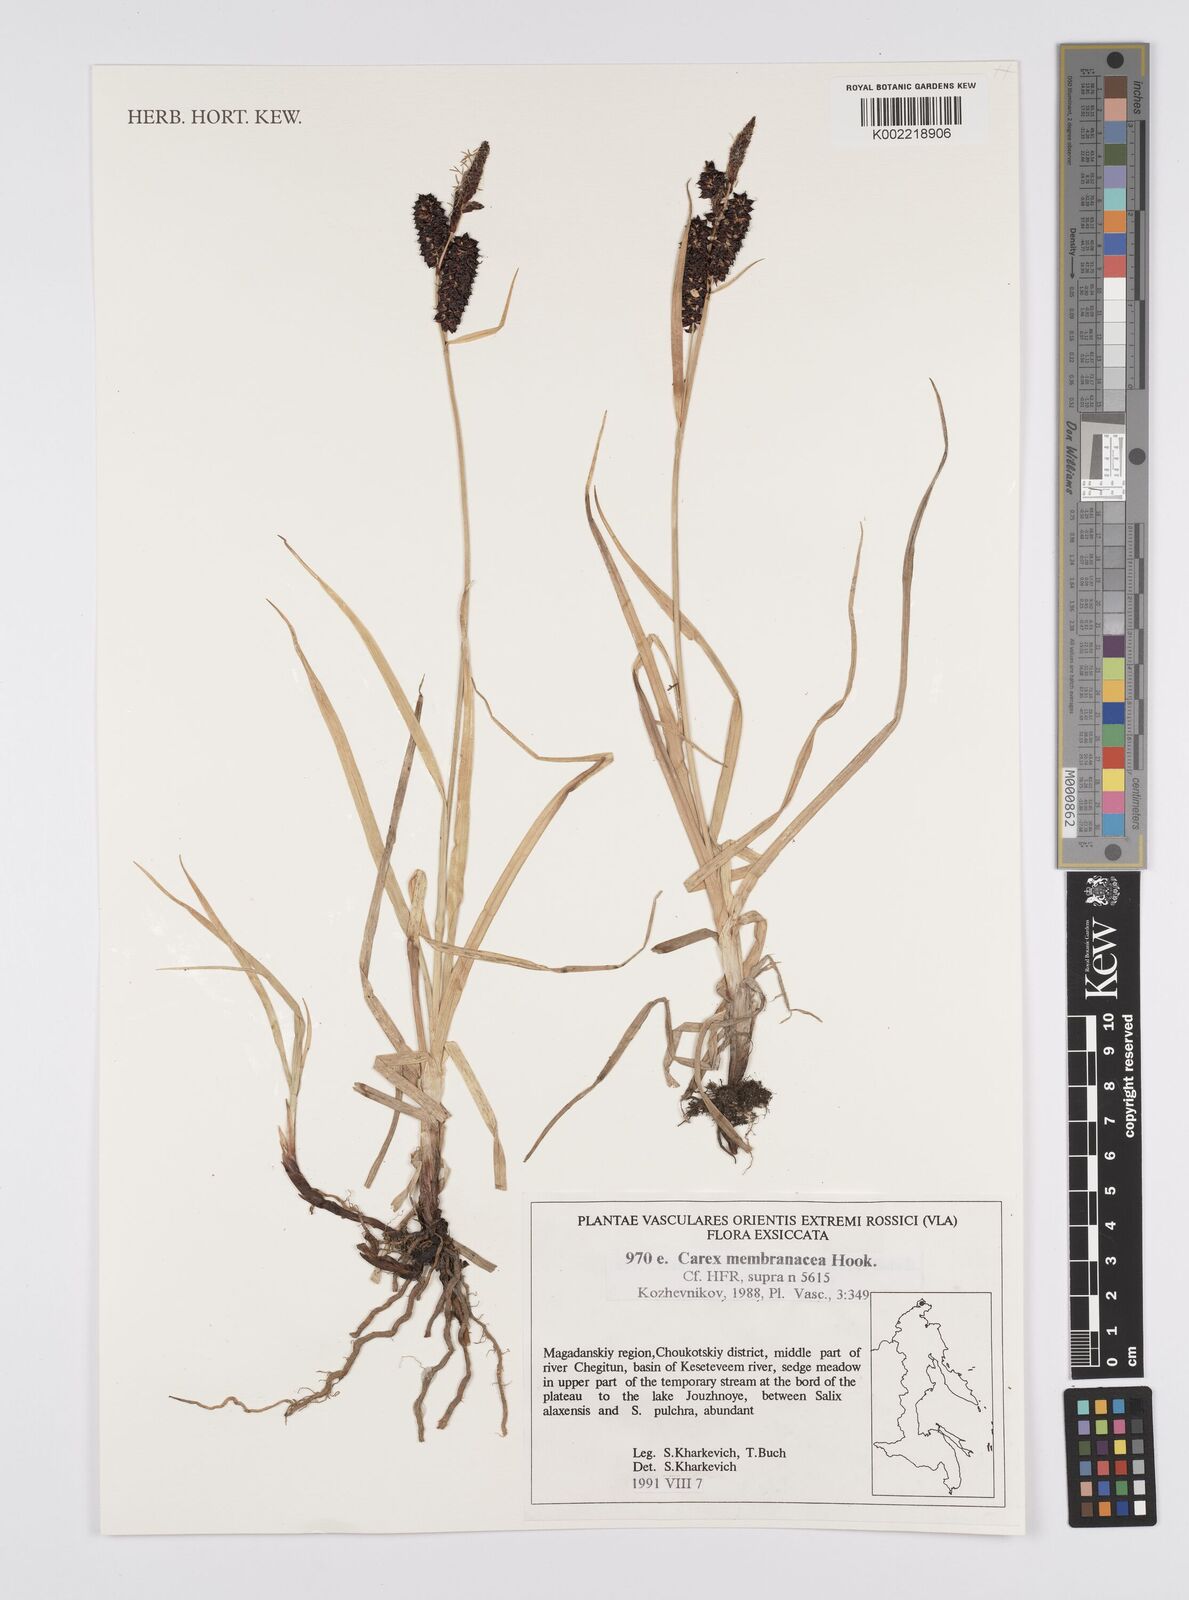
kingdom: Plantae
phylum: Tracheophyta
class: Liliopsida
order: Poales
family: Cyperaceae
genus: Carex
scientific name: Carex vesicaria
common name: Bladder-sedge
